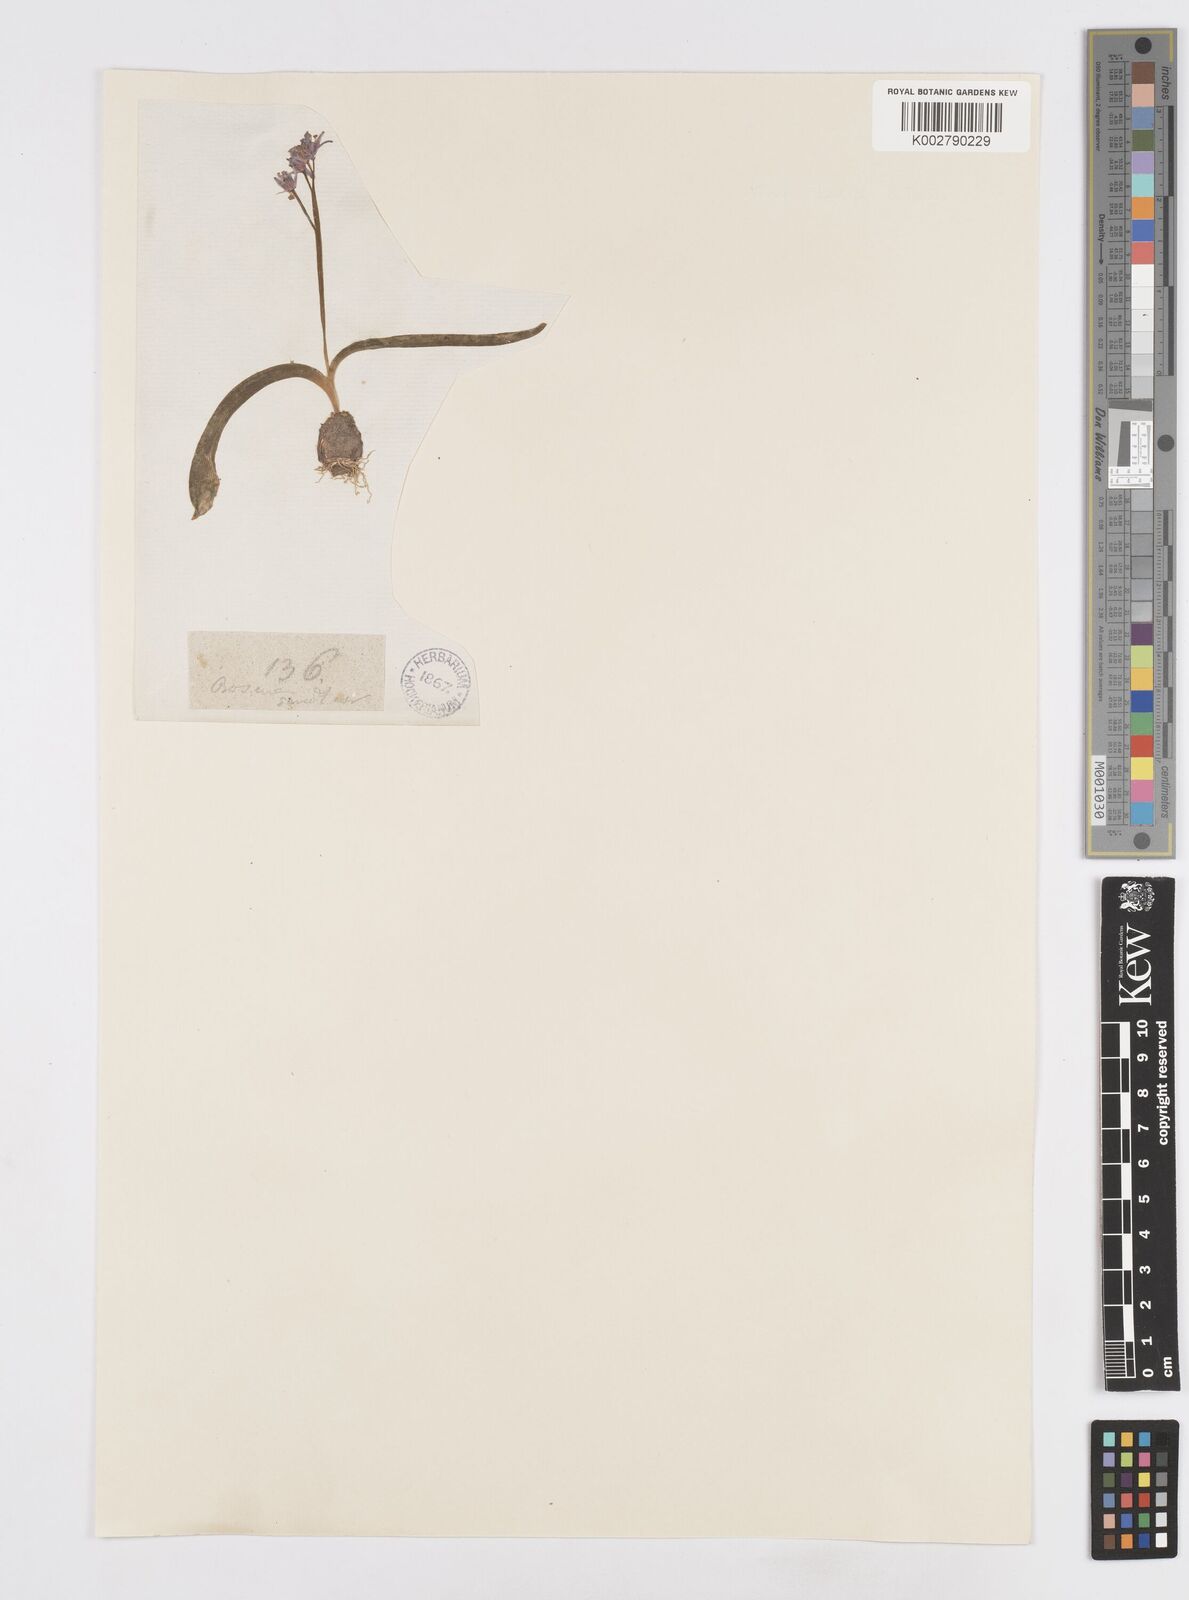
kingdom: Plantae
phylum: Tracheophyta
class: Liliopsida
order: Asparagales
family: Asparagaceae
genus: Scilla
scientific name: Scilla bifolia
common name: Alpine squill
